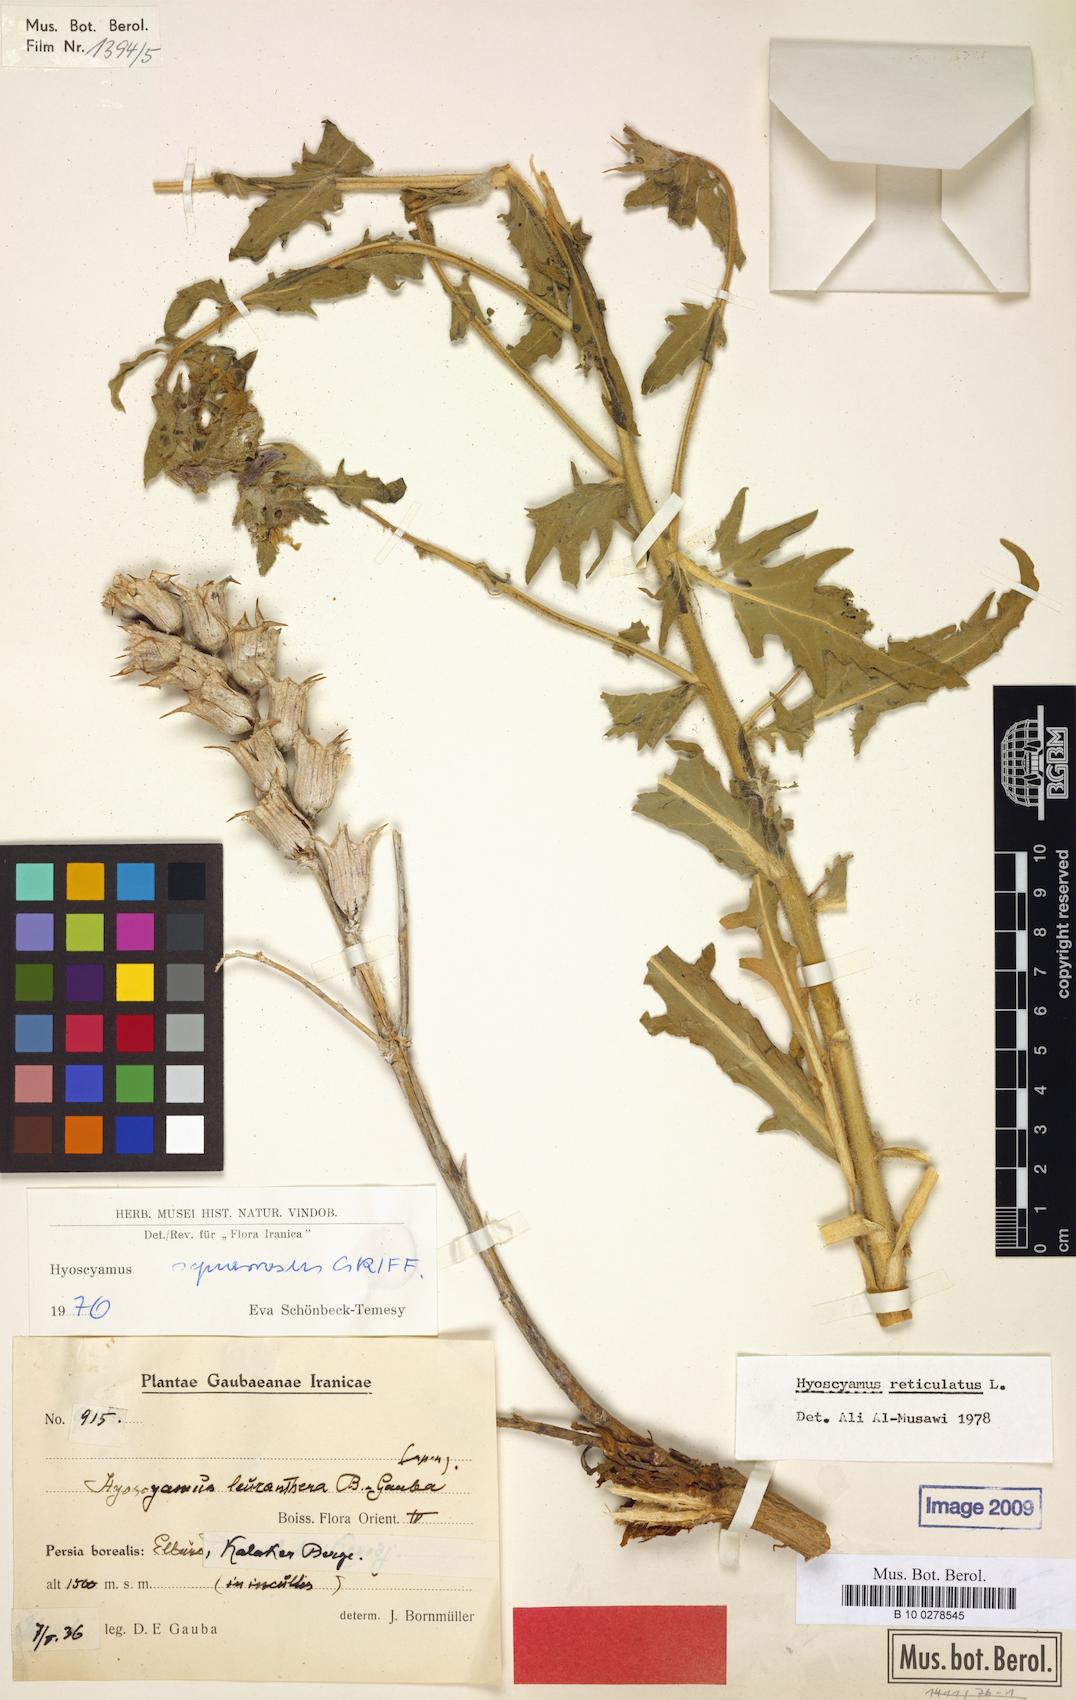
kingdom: Plantae
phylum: Tracheophyta
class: Magnoliopsida
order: Solanales
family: Solanaceae
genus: Hyoscyamus
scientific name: Hyoscyamus squarrosus
